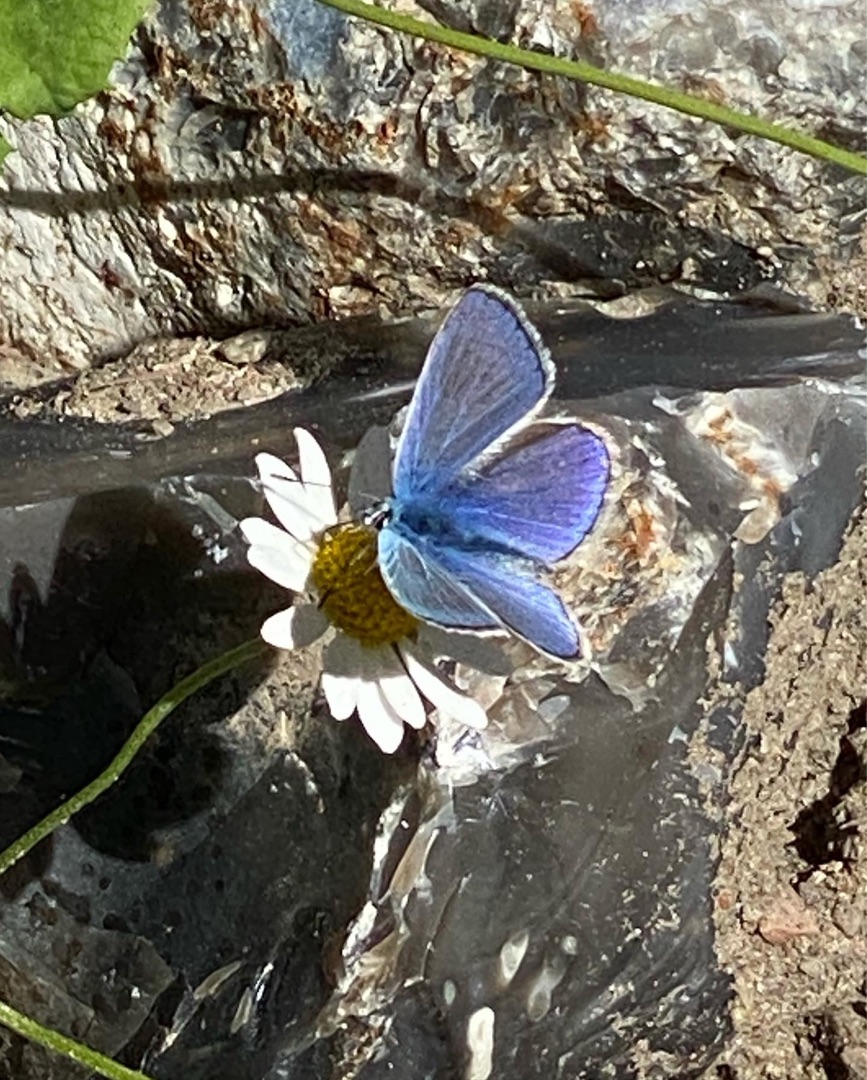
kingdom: Animalia
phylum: Arthropoda
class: Insecta
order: Lepidoptera
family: Lycaenidae
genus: Polyommatus
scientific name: Polyommatus icarus
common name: Almindelig blåfugl
